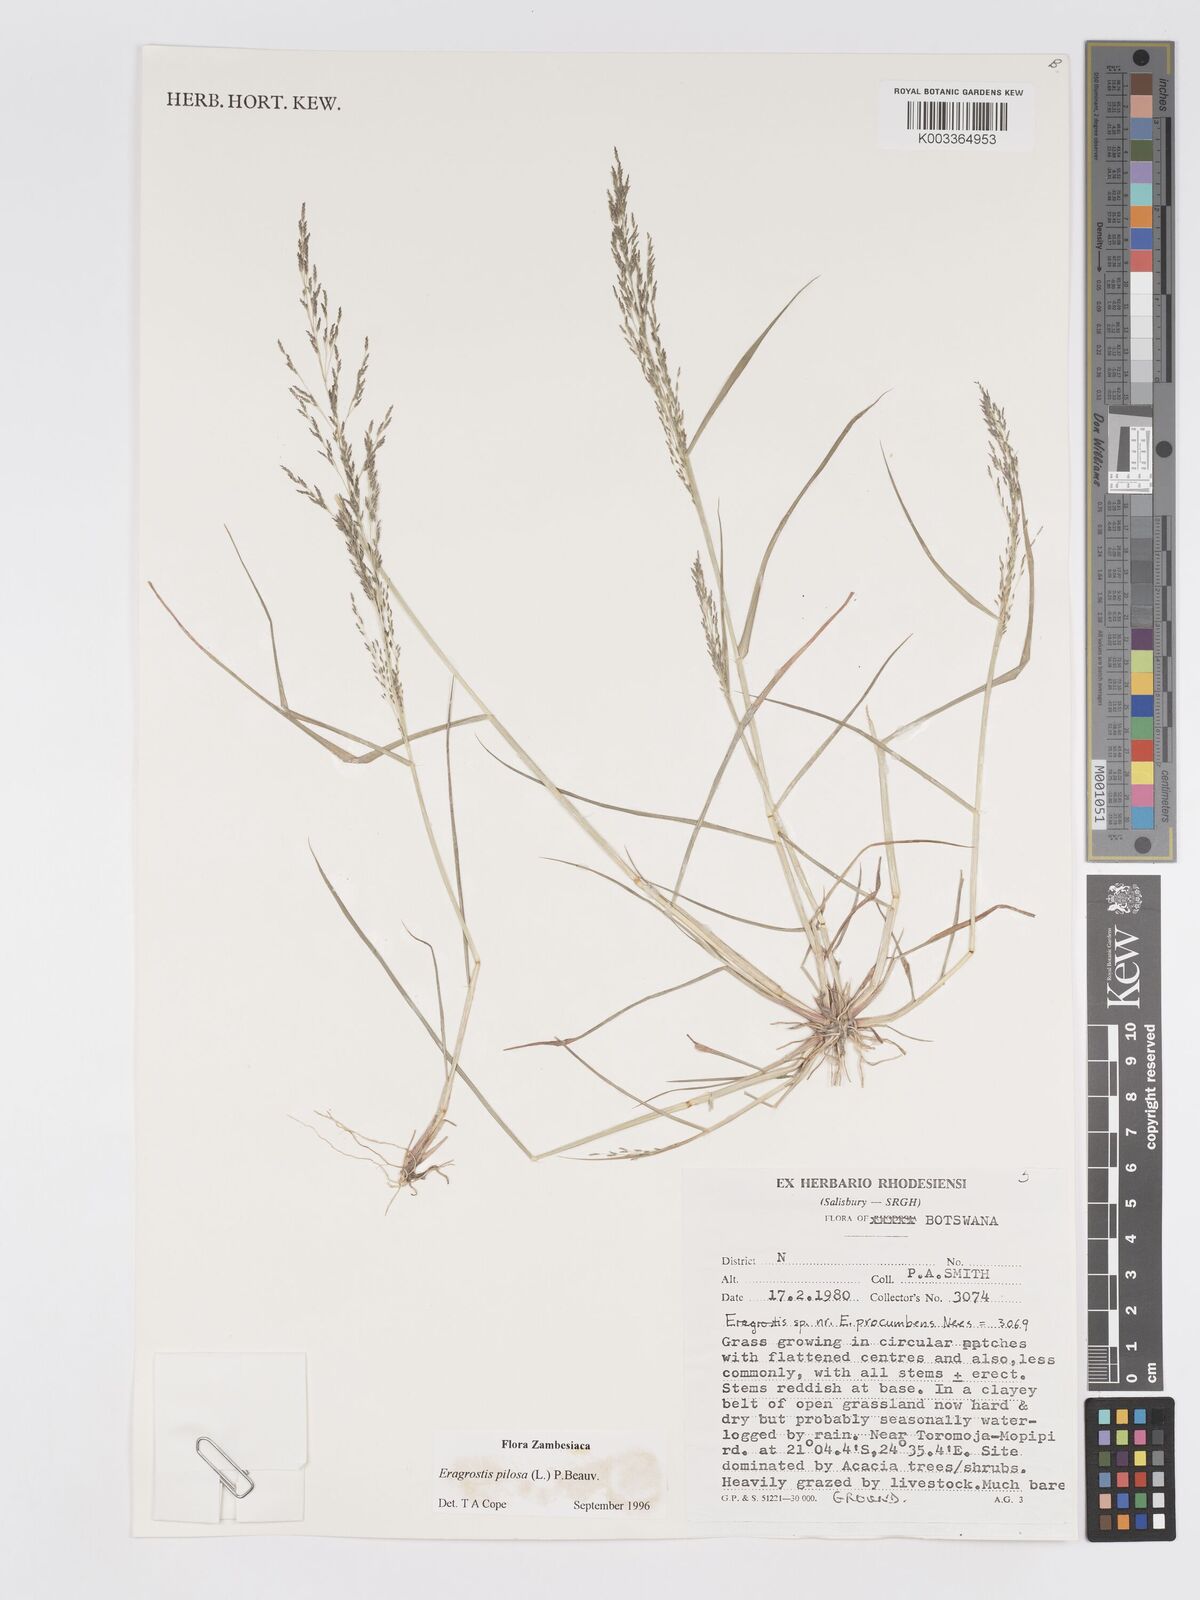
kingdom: Plantae
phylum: Tracheophyta
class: Liliopsida
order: Poales
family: Poaceae
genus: Eragrostis
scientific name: Eragrostis pilosa
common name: Indian lovegrass
